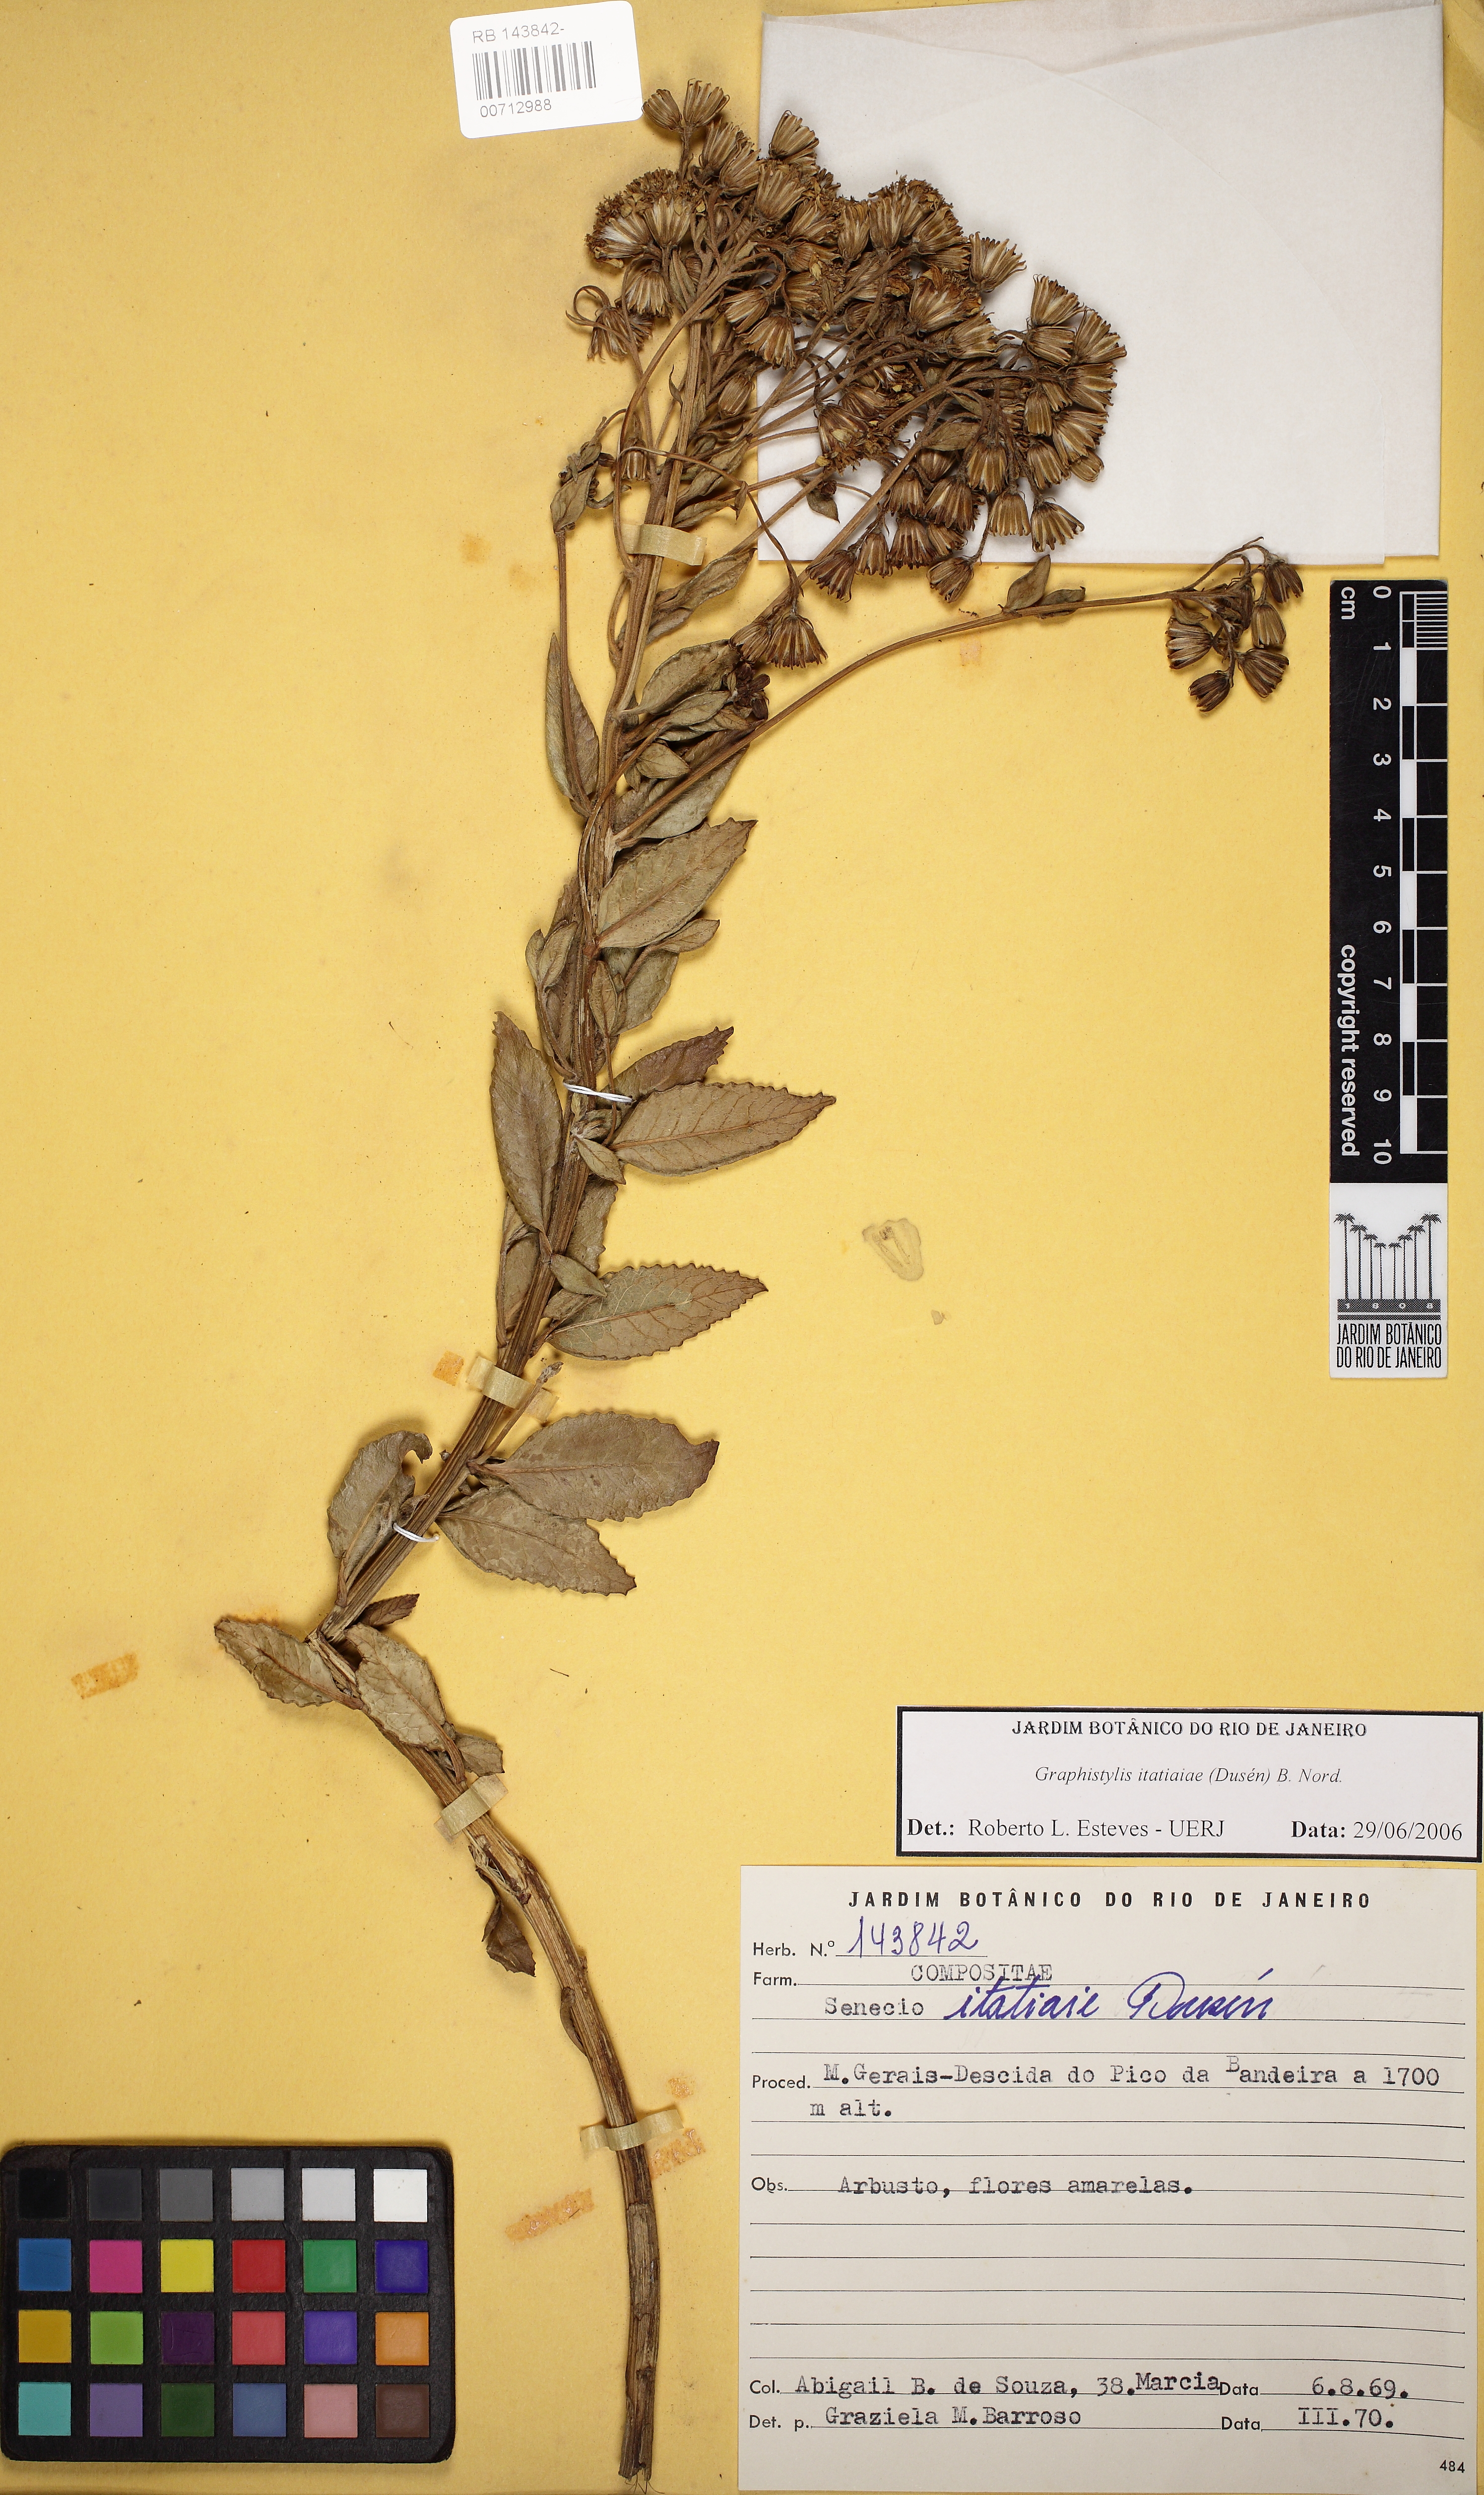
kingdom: Plantae
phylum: Tracheophyta
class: Magnoliopsida
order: Asterales
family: Asteraceae
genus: Graphistylis
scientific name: Graphistylis itatiaiae
